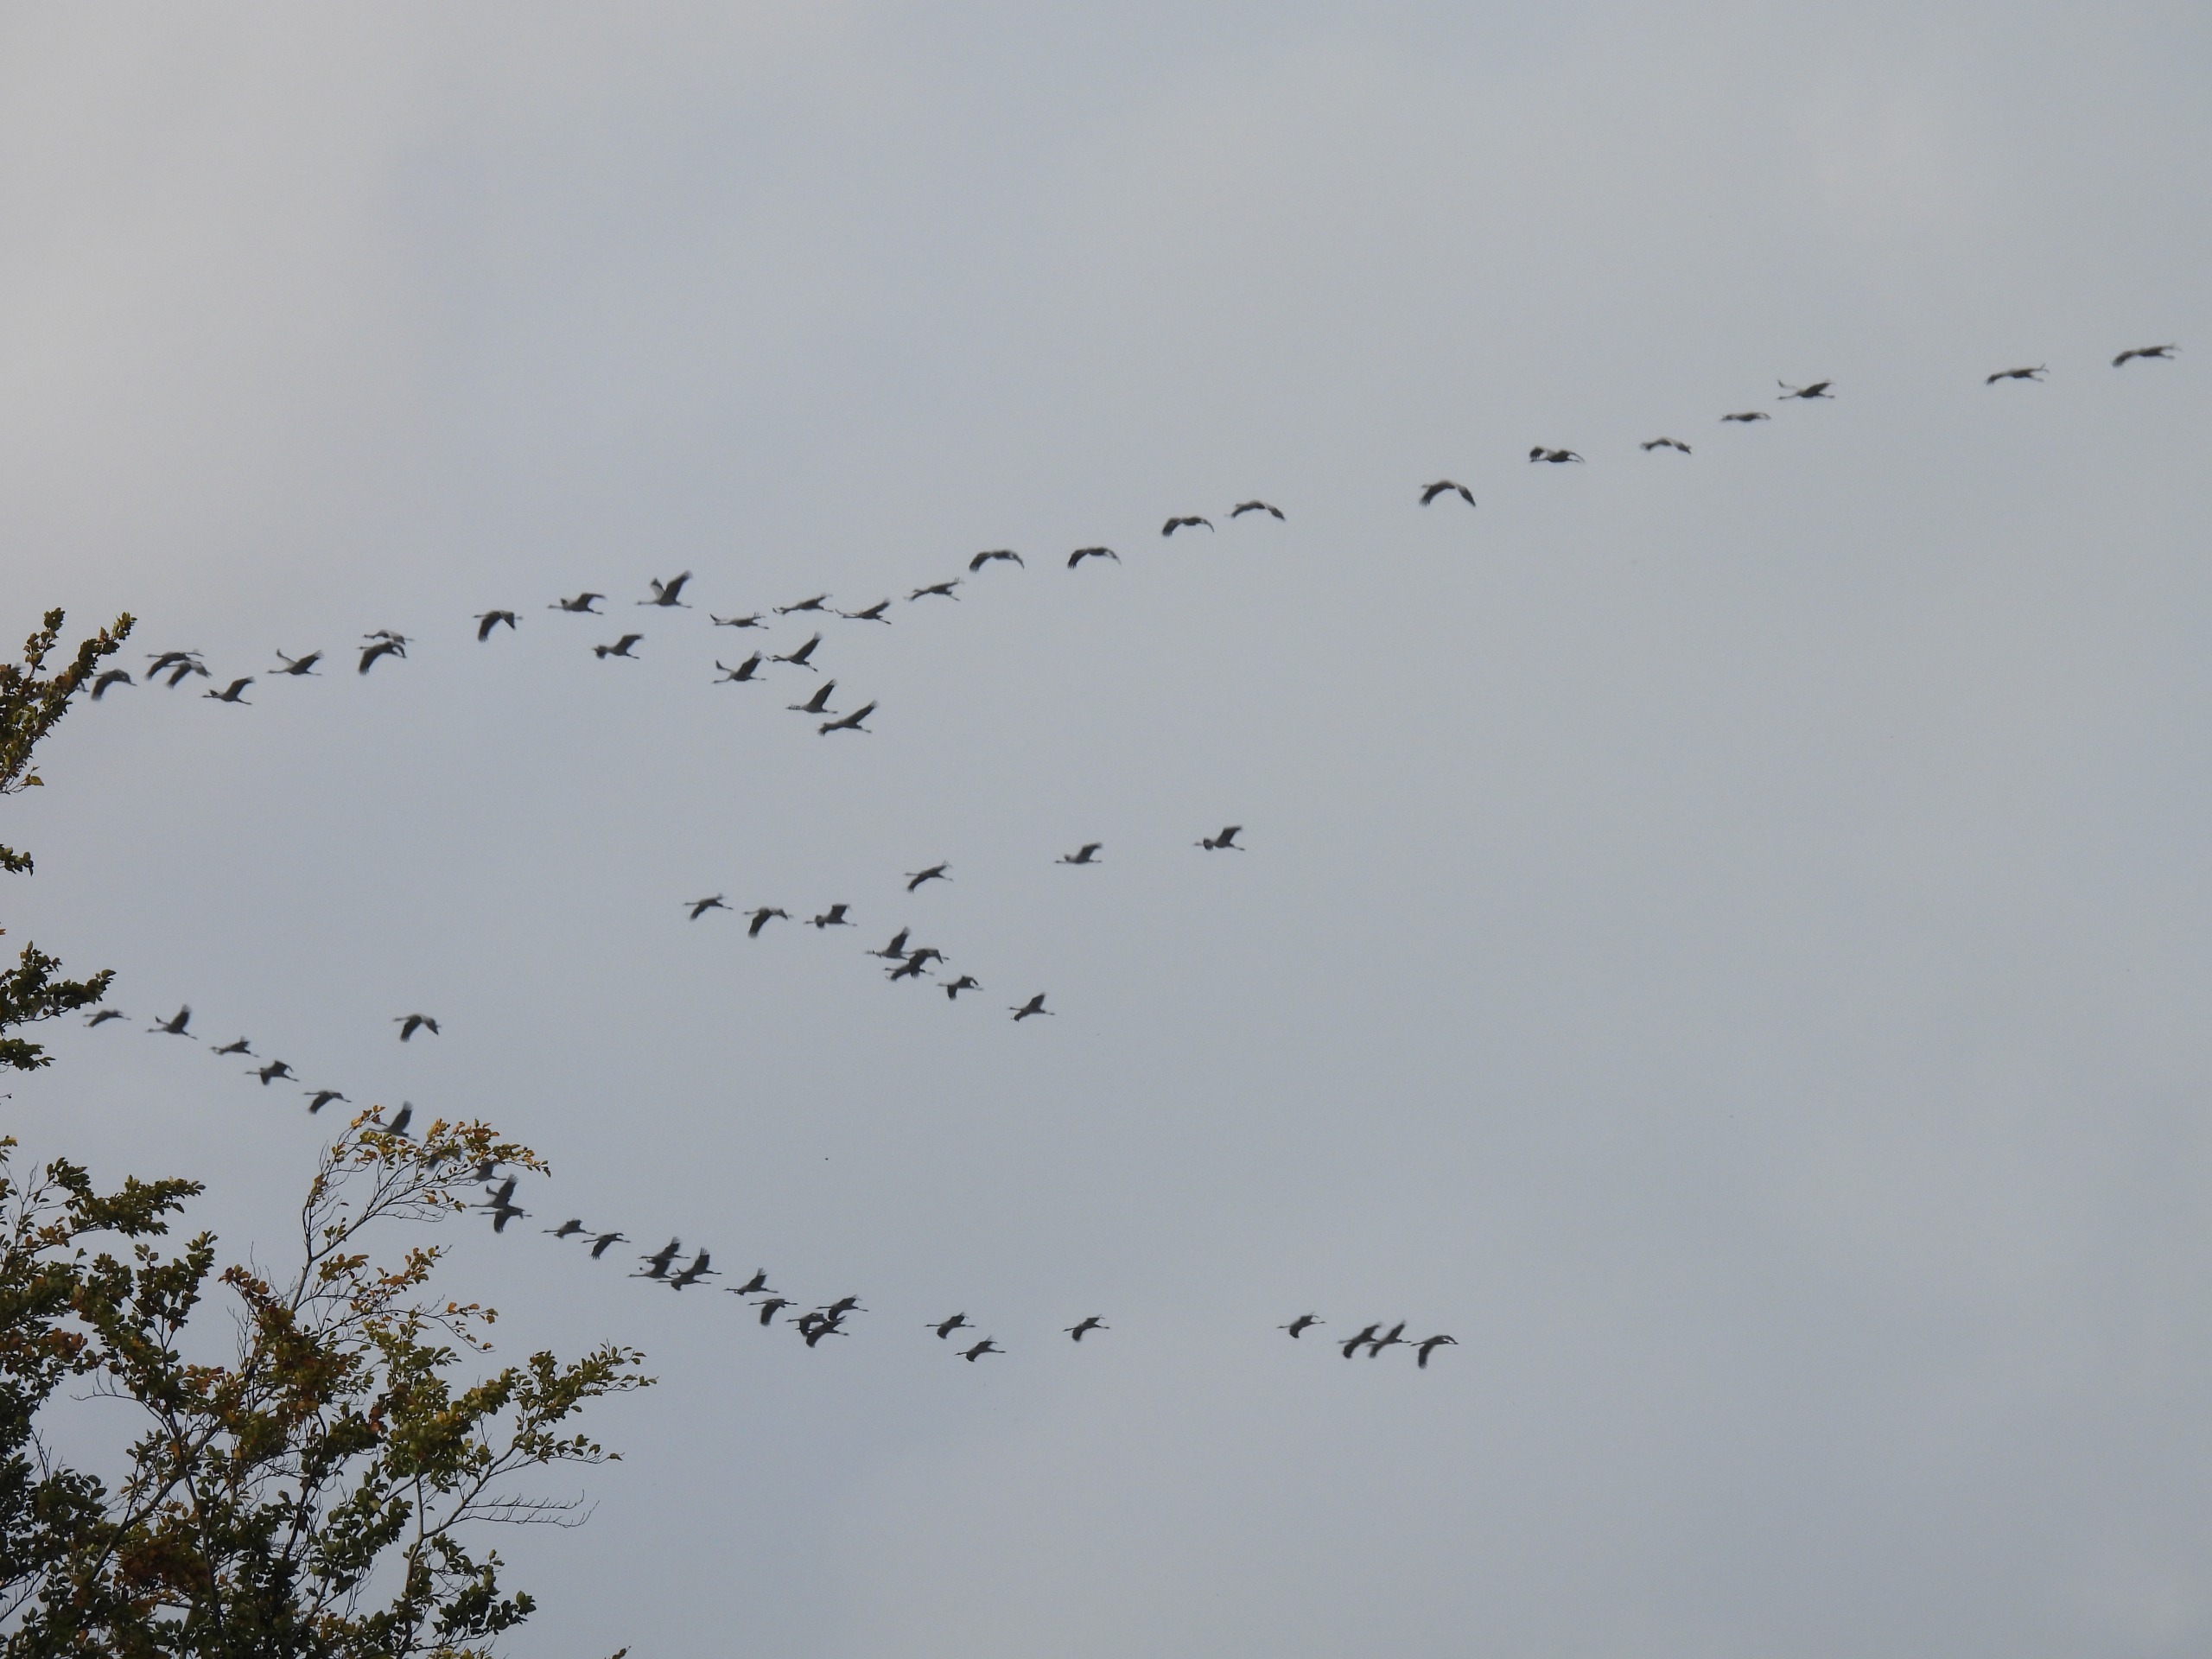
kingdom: Animalia
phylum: Chordata
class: Aves
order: Gruiformes
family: Gruidae
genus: Grus
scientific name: Grus grus
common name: Trane
